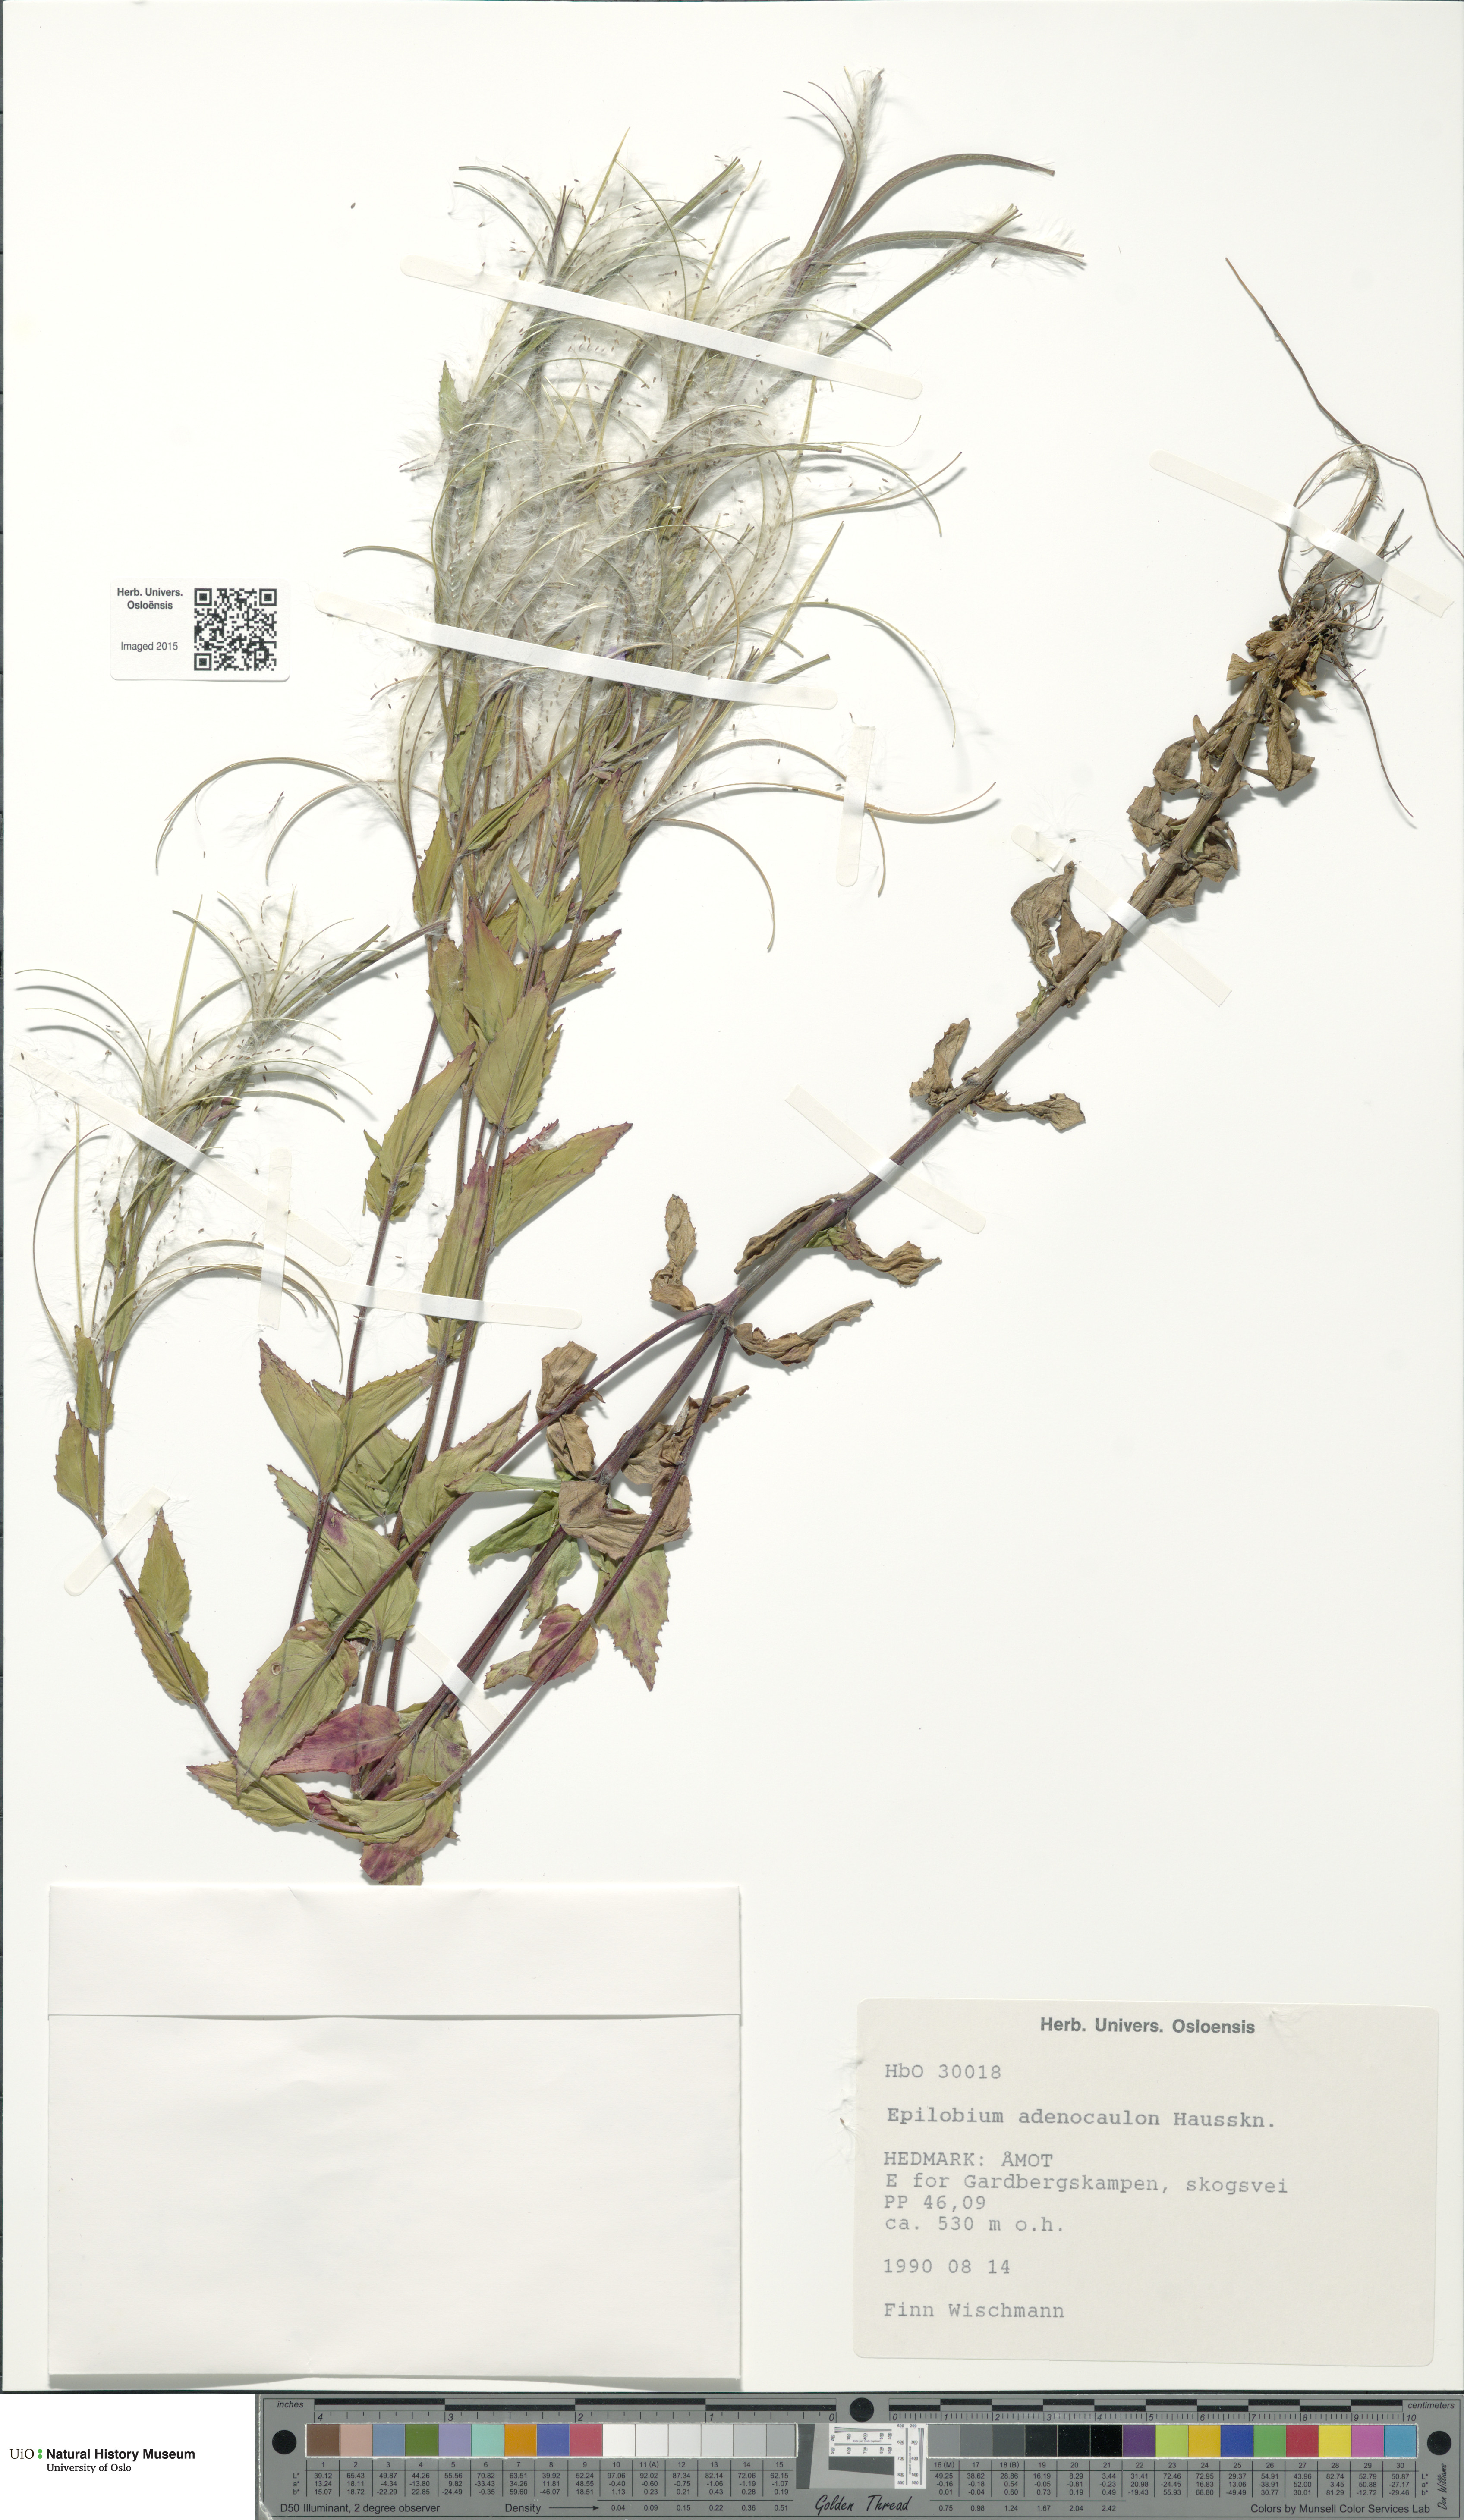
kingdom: Plantae
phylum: Tracheophyta
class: Magnoliopsida
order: Myrtales
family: Onagraceae
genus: Epilobium
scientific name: Epilobium ciliatum
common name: American willowherb
